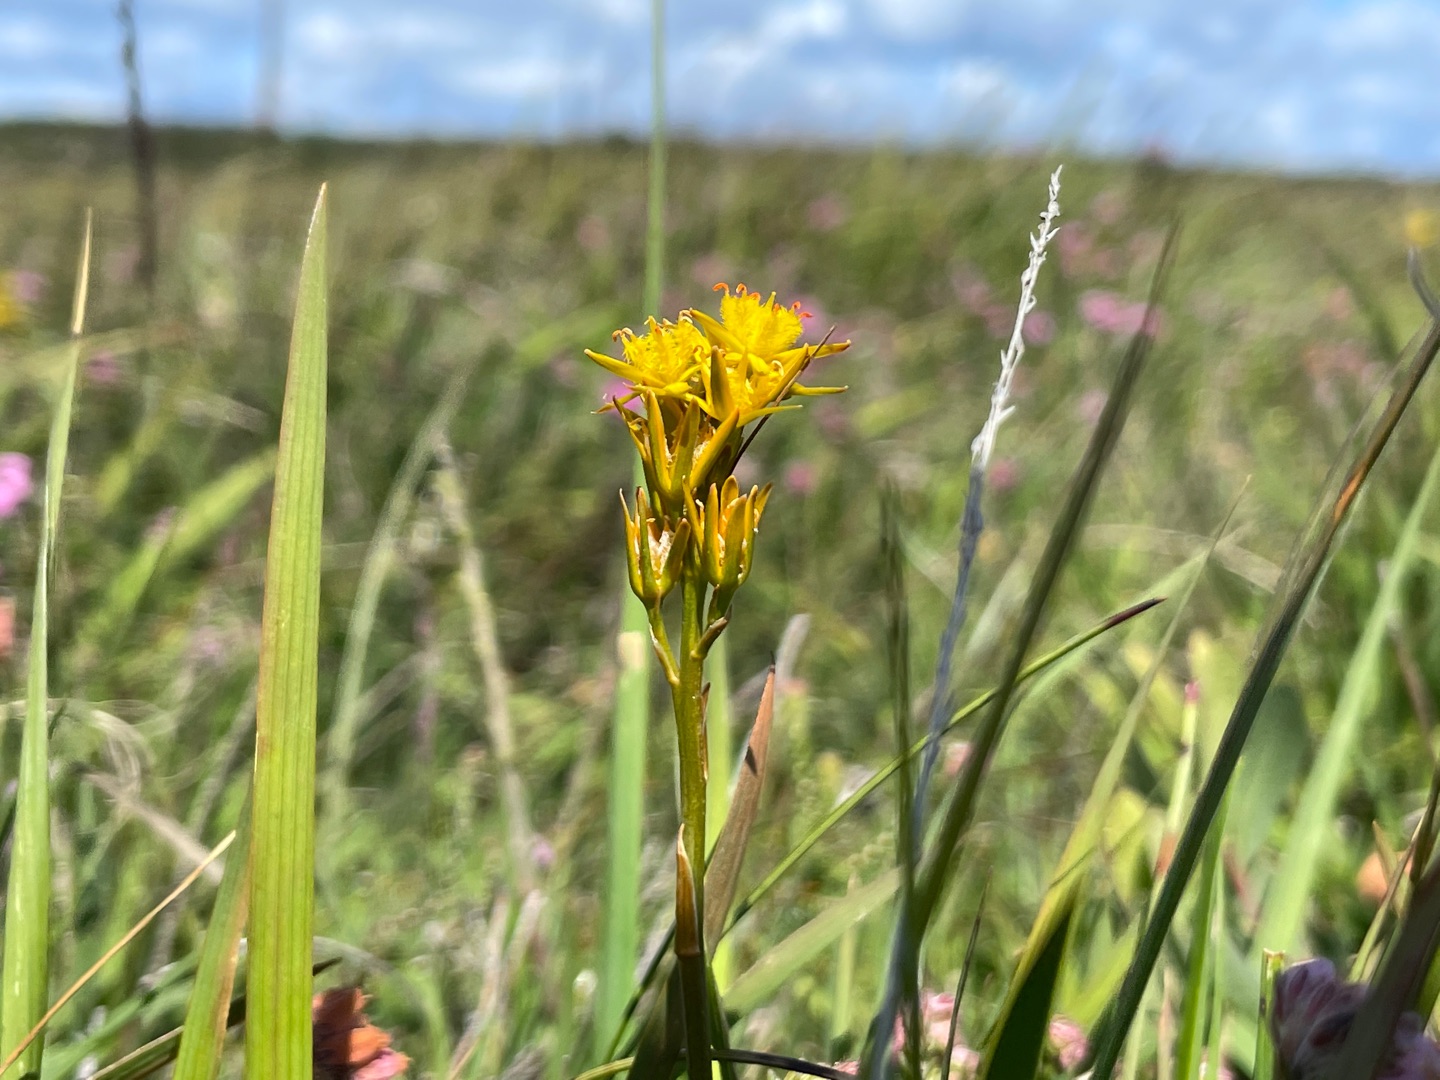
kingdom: Plantae
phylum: Tracheophyta
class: Liliopsida
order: Dioscoreales
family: Nartheciaceae
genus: Narthecium
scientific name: Narthecium ossifragum
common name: Benbræk
